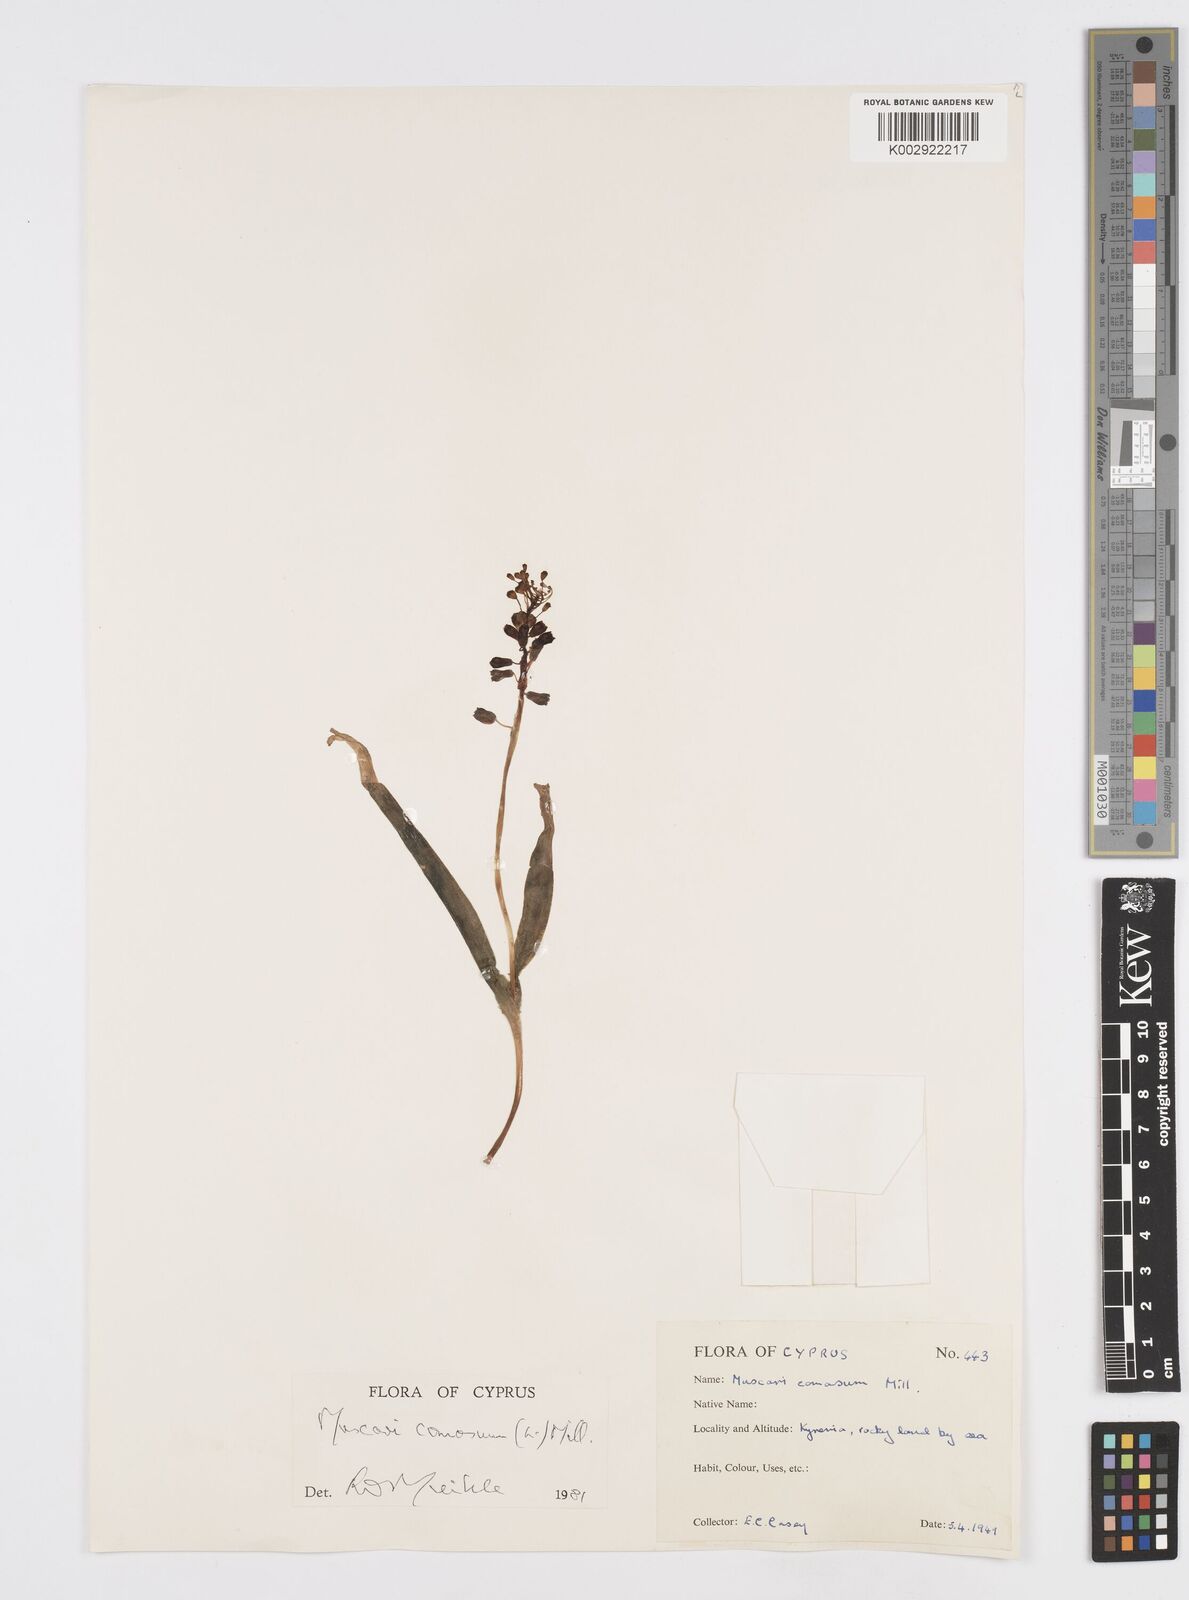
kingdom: Plantae
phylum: Tracheophyta
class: Liliopsida
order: Asparagales
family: Asparagaceae
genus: Muscari
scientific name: Muscari comosum
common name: Tassel hyacinth
